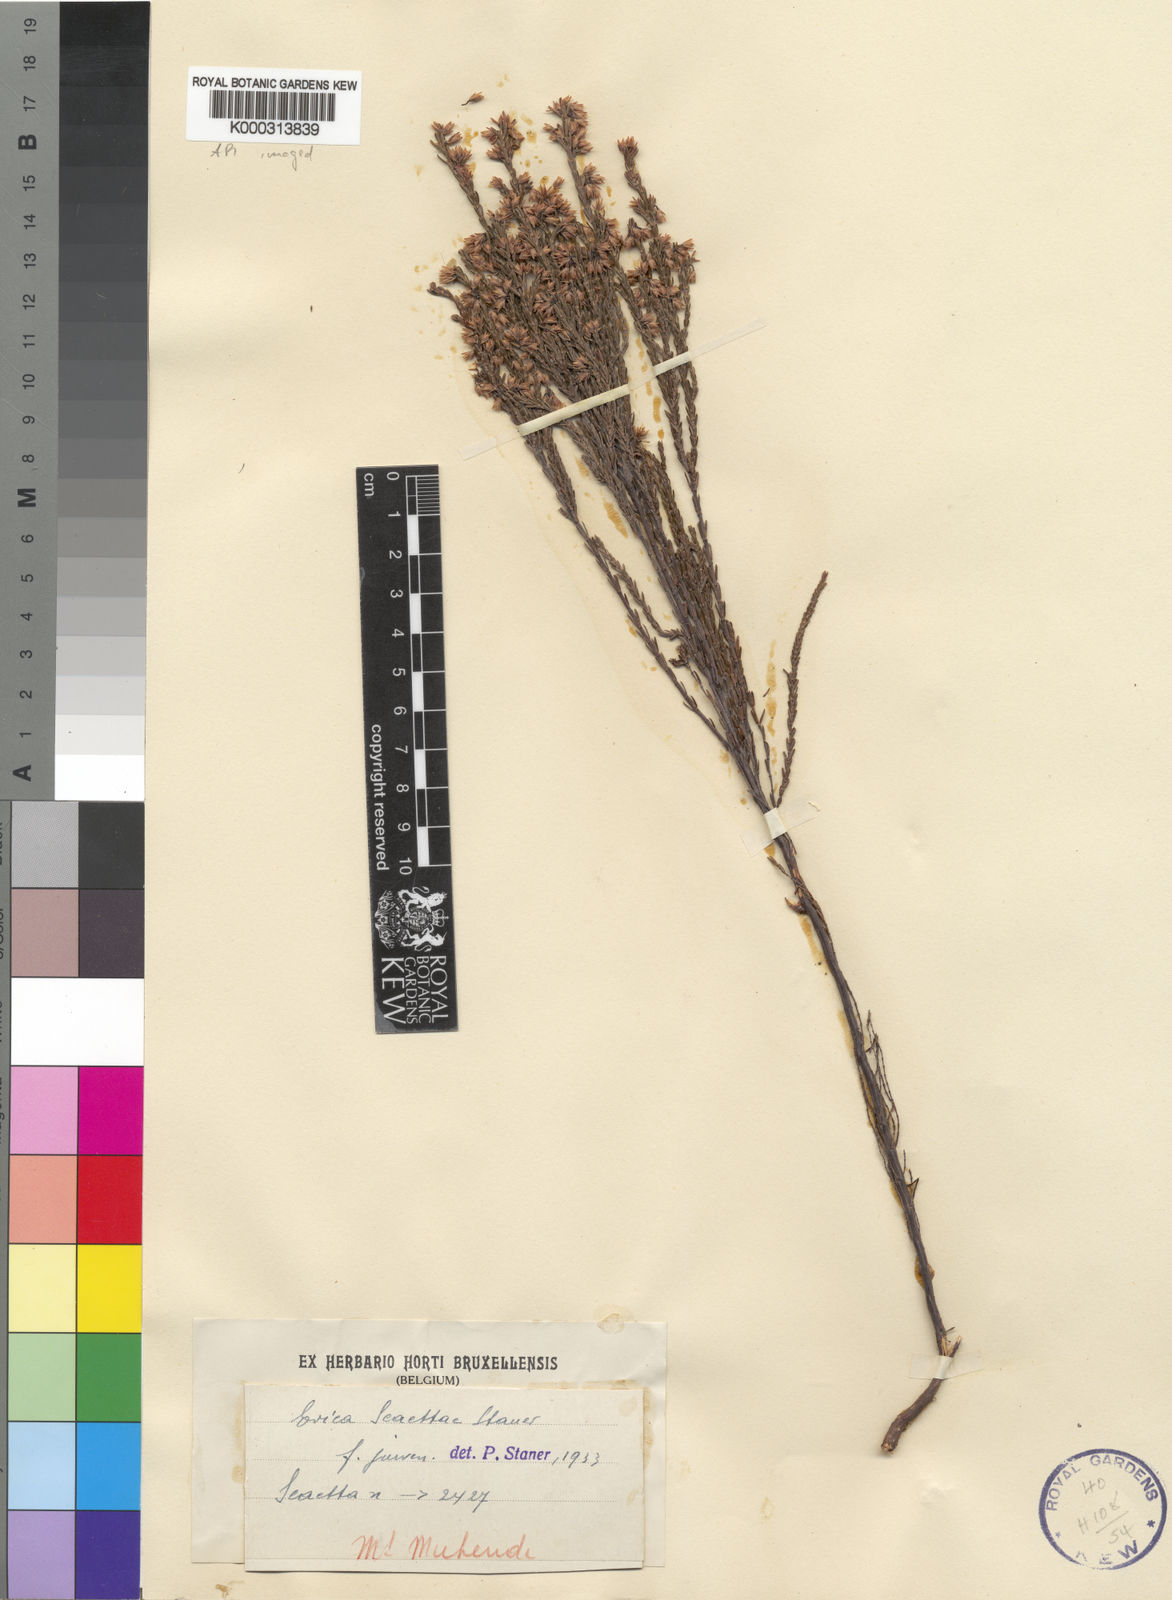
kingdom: Plantae
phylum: Tracheophyta
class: Magnoliopsida
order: Ericales
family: Ericaceae
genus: Erica
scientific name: Erica kingaensis
